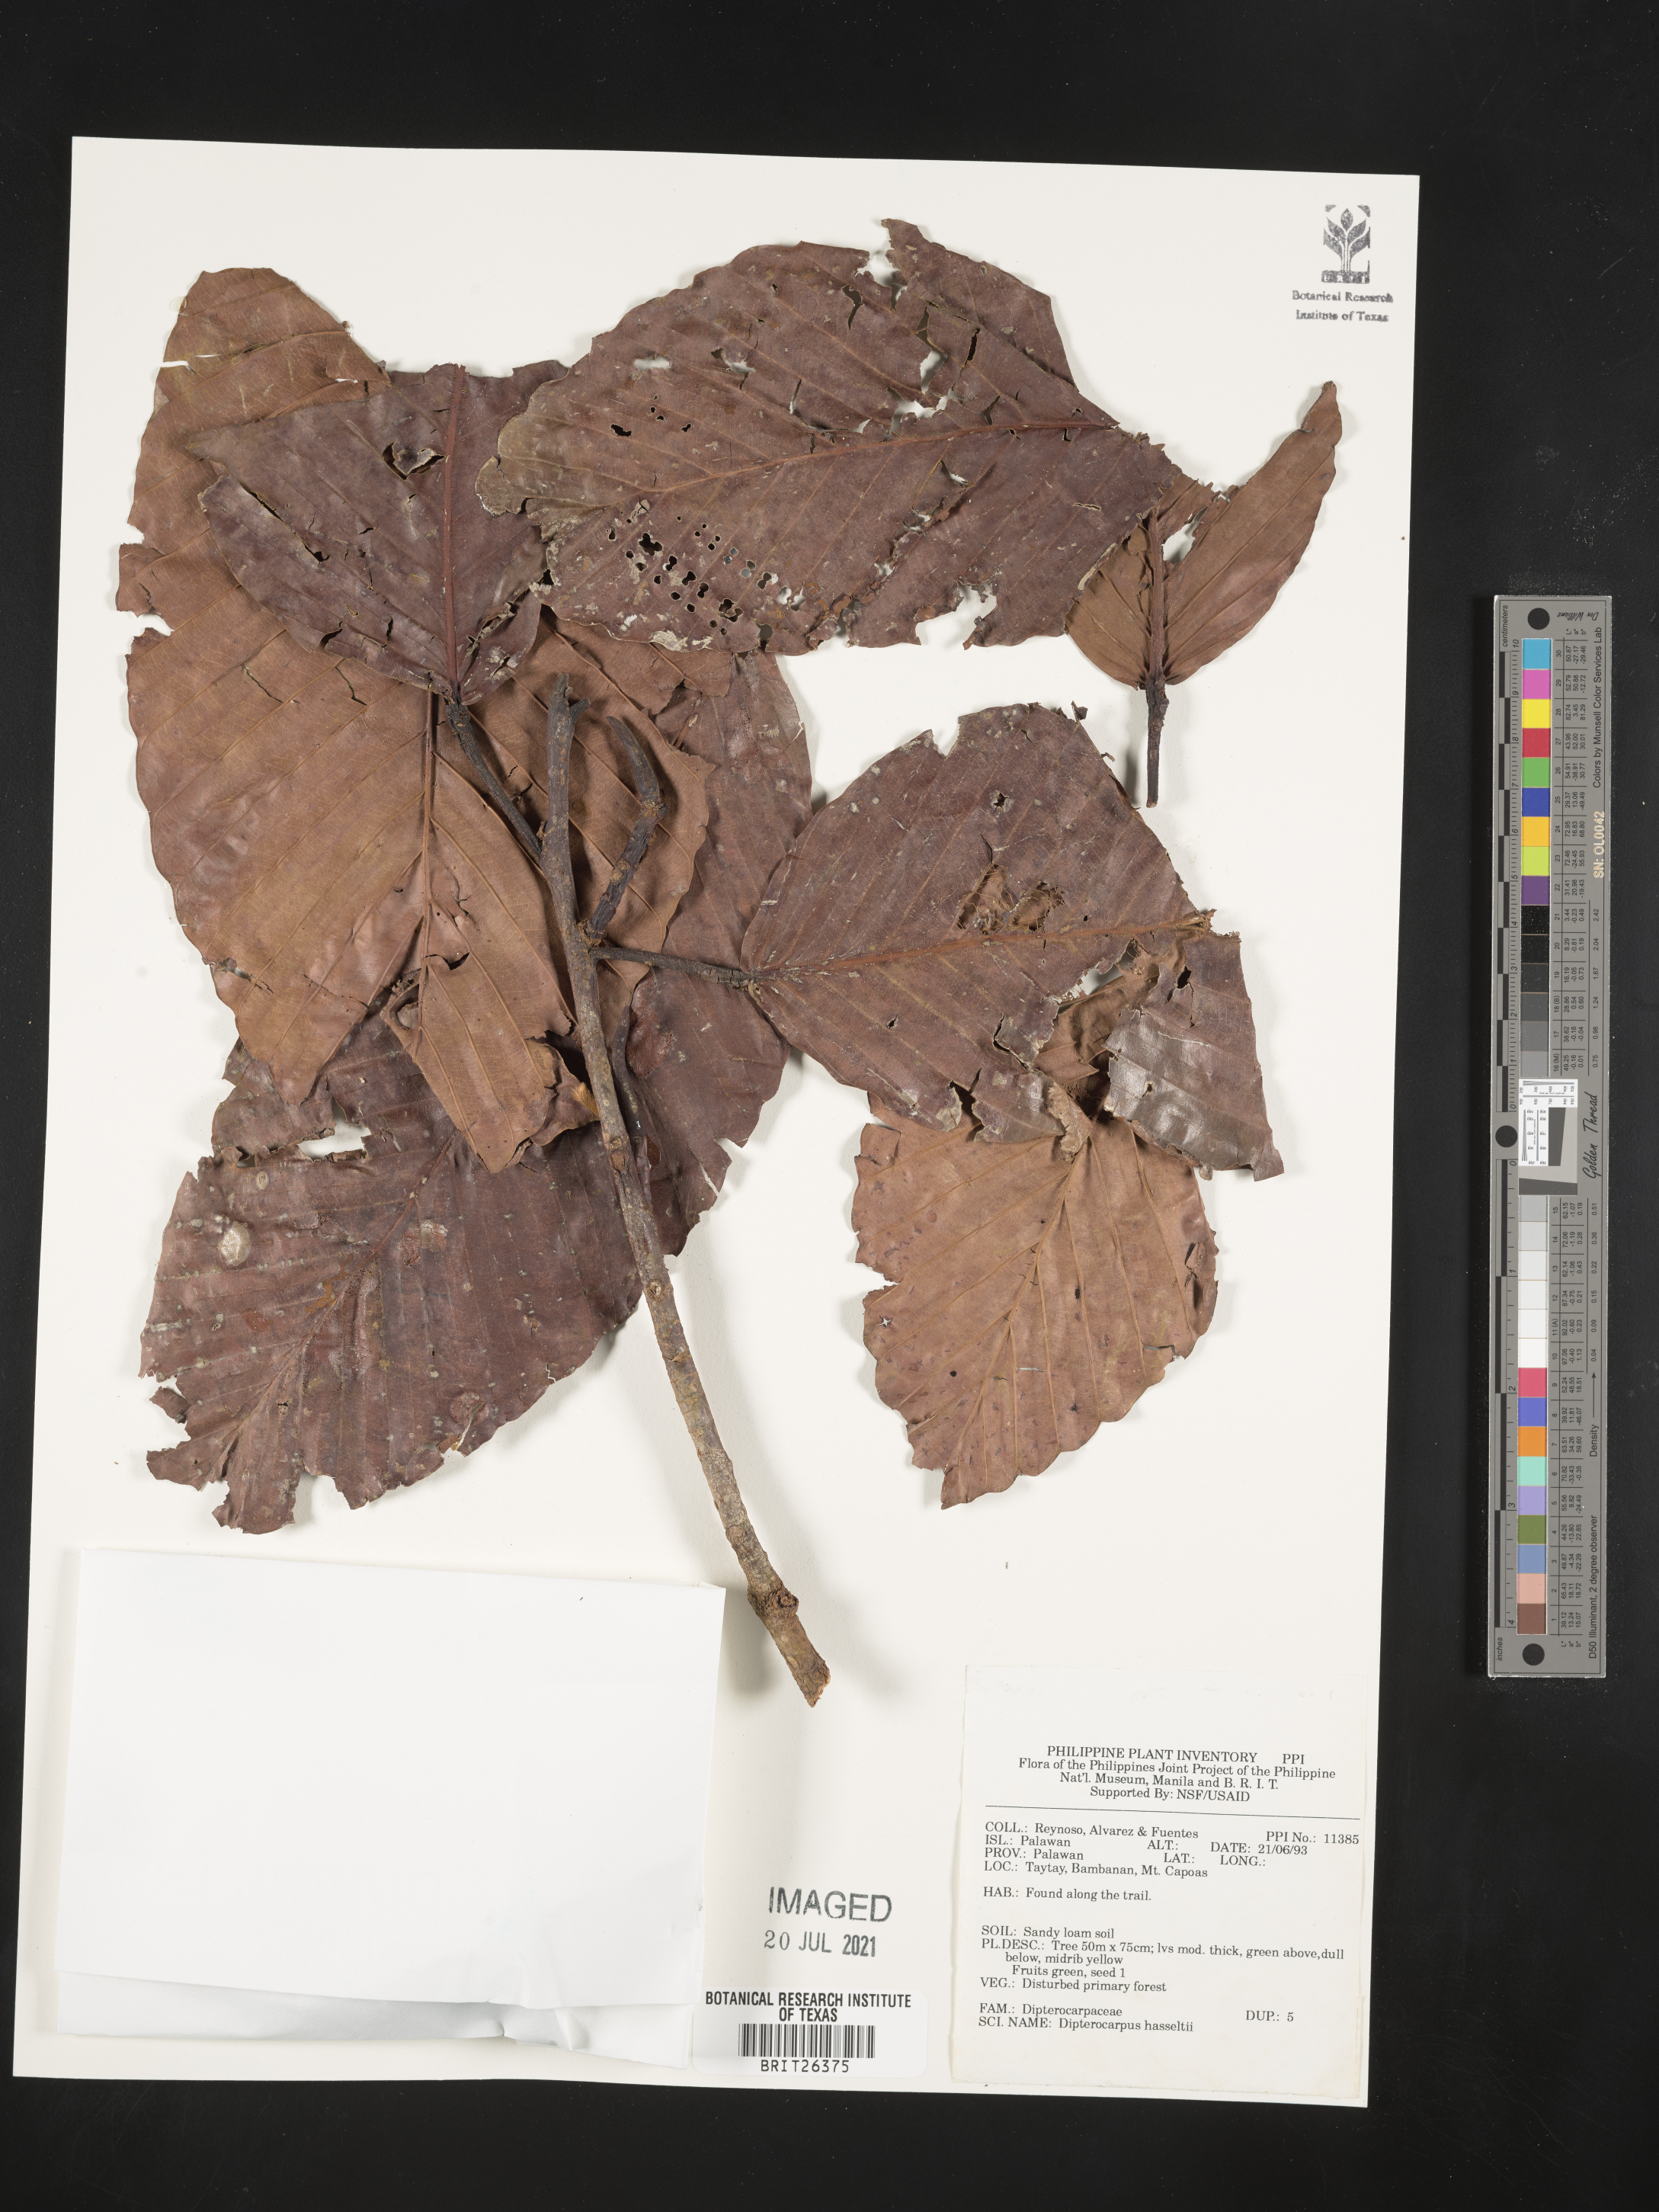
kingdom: Plantae
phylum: Tracheophyta
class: Magnoliopsida
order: Malvales
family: Dipterocarpaceae
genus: Dipterocarpus
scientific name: Dipterocarpus hasseltii
